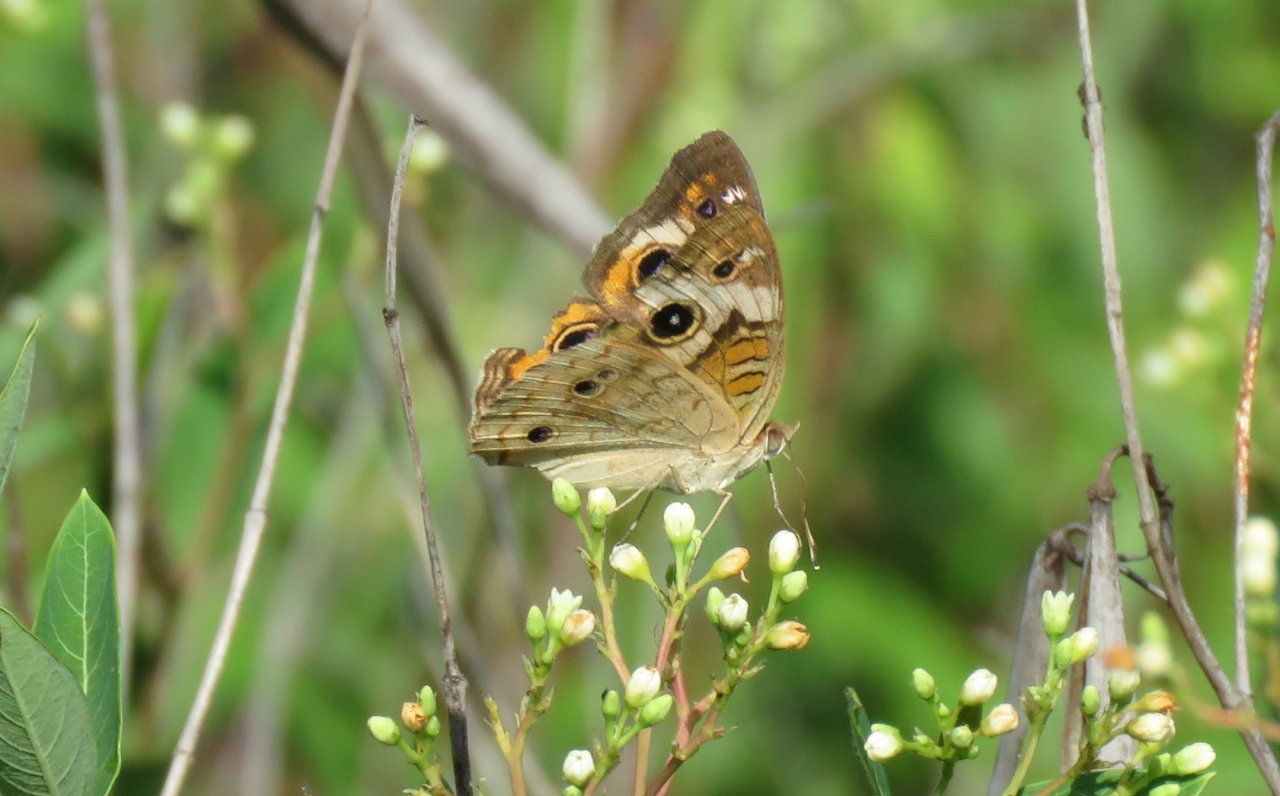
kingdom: Animalia
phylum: Arthropoda
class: Insecta
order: Lepidoptera
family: Nymphalidae
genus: Junonia
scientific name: Junonia coenia
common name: Common Buckeye
